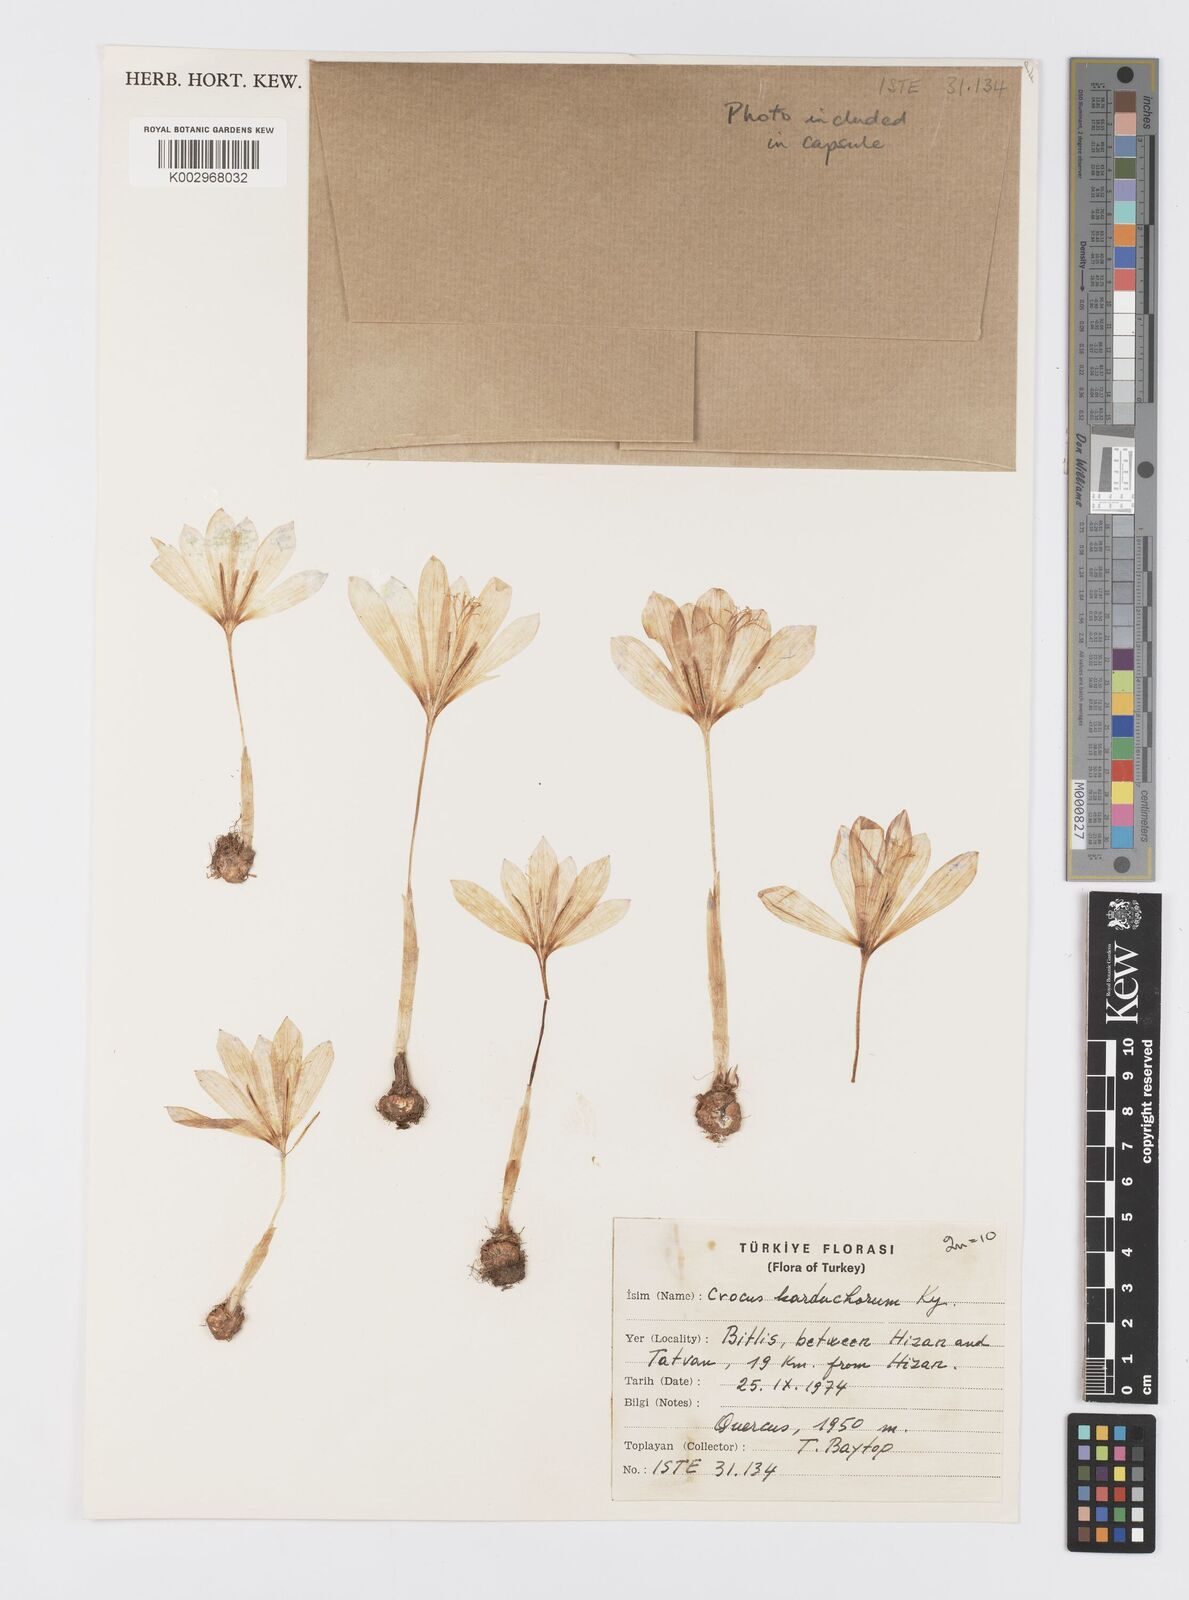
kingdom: Plantae
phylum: Tracheophyta
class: Liliopsida
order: Asparagales
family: Iridaceae
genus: Crocus
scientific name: Crocus karduchorum
